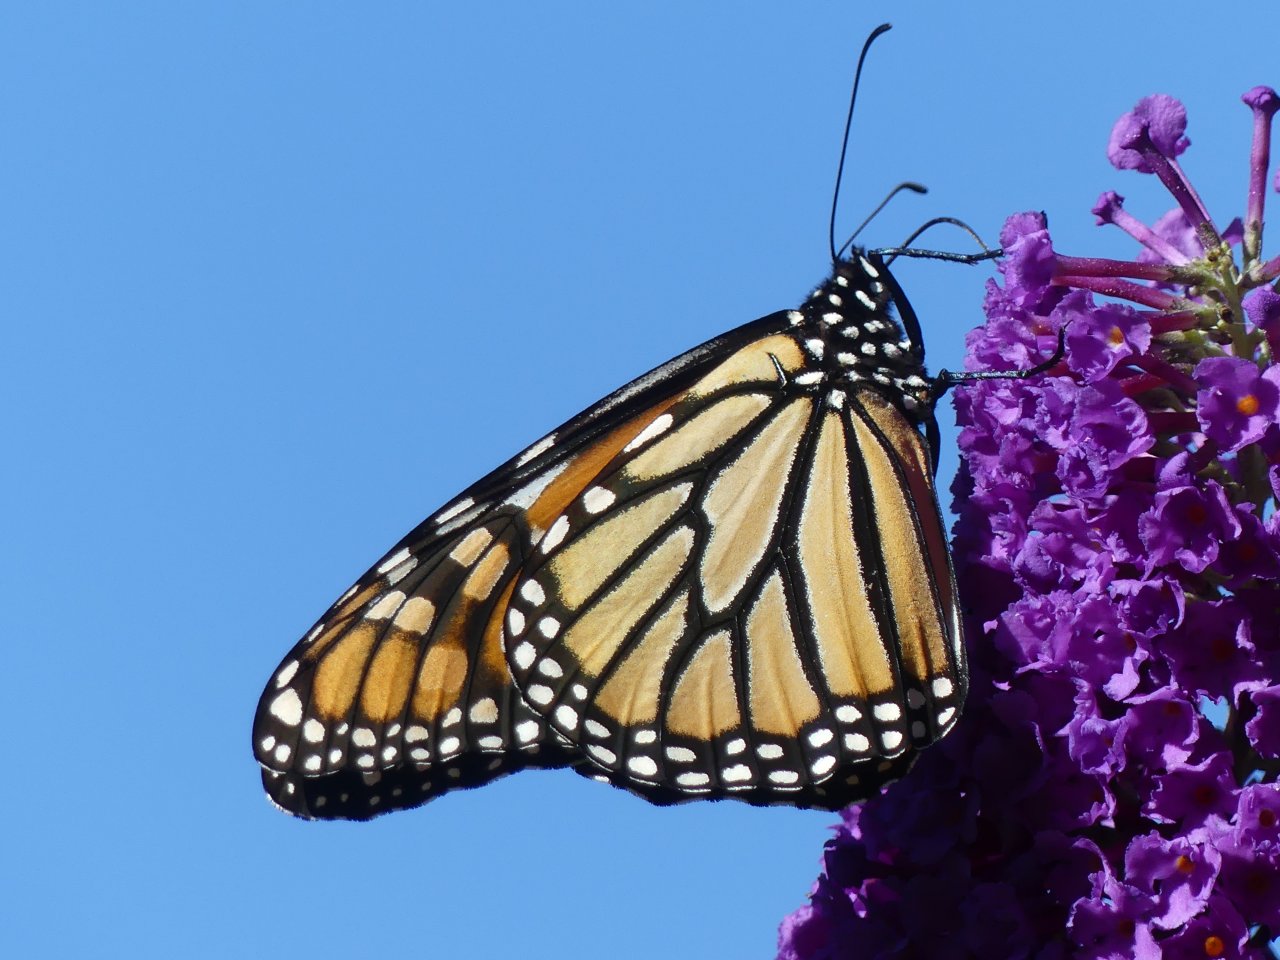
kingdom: Animalia
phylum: Arthropoda
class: Insecta
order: Lepidoptera
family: Nymphalidae
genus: Danaus
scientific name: Danaus plexippus
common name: Monarch
